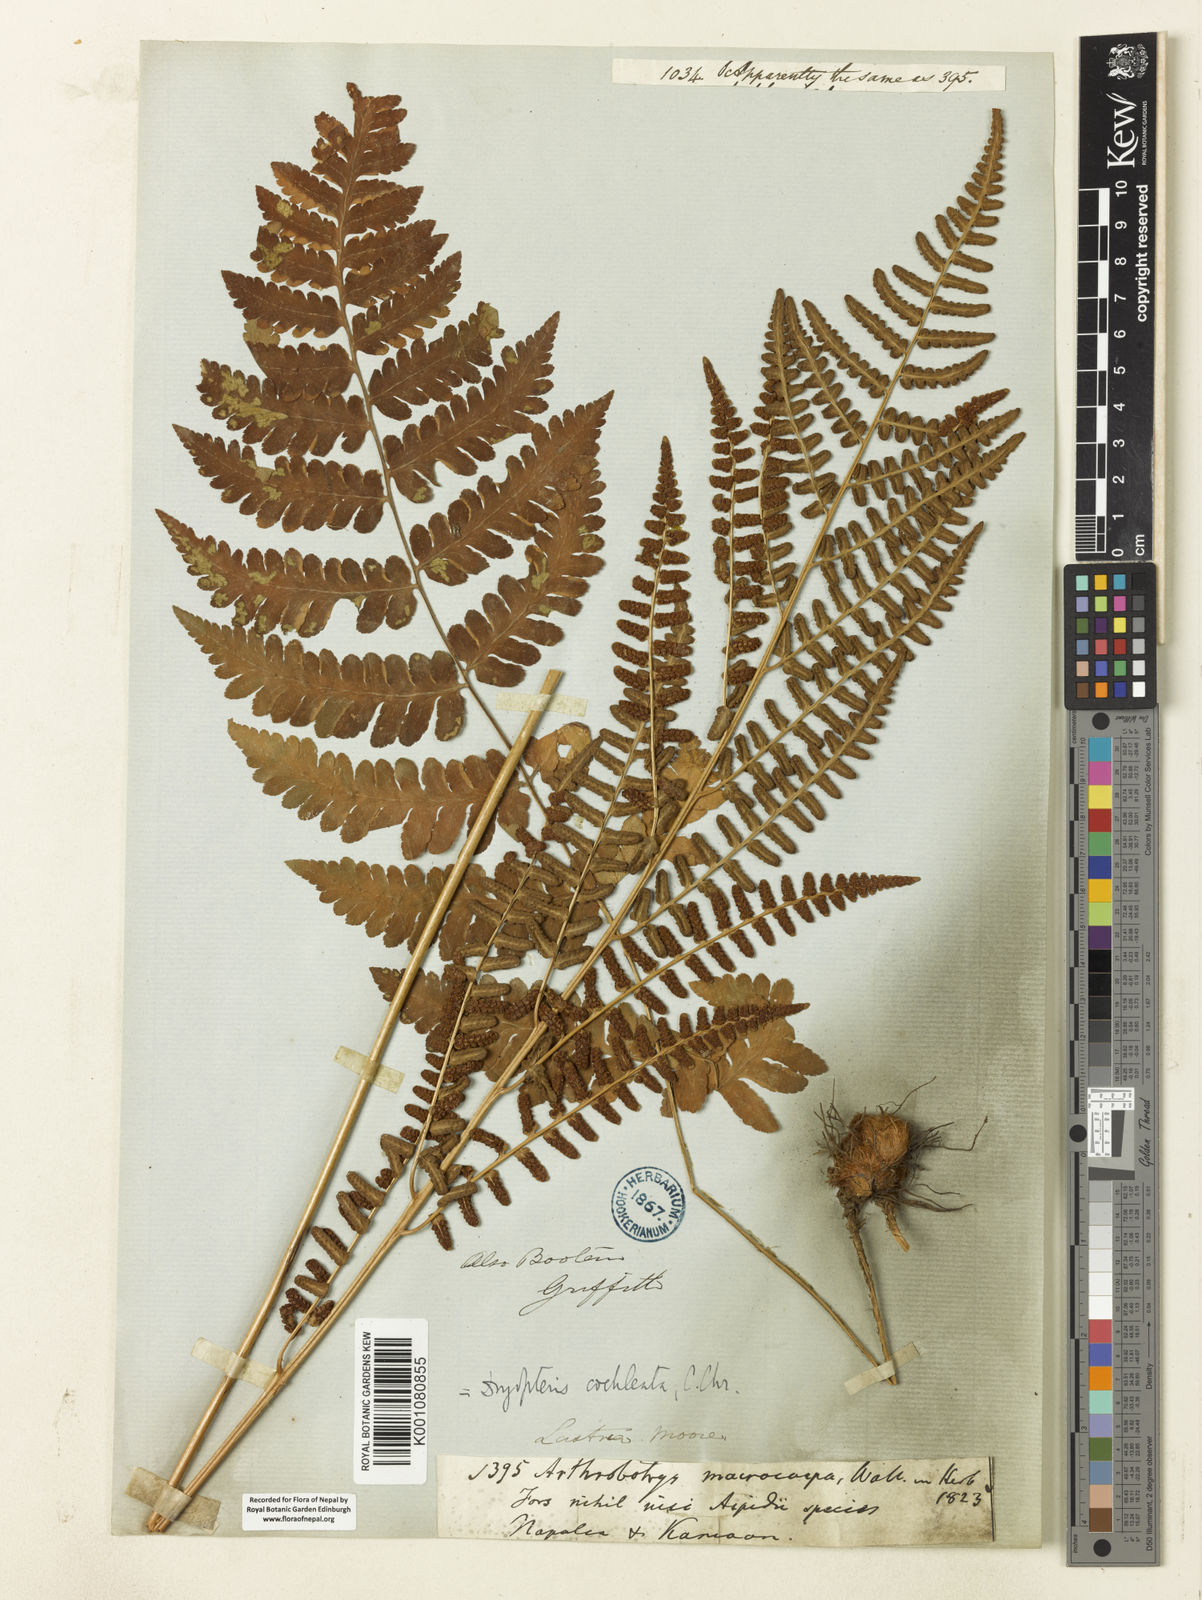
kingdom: Plantae
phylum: Tracheophyta
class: Polypodiopsida
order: Polypodiales
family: Dryopteridaceae
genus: Dryopteris
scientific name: Dryopteris cochleata
